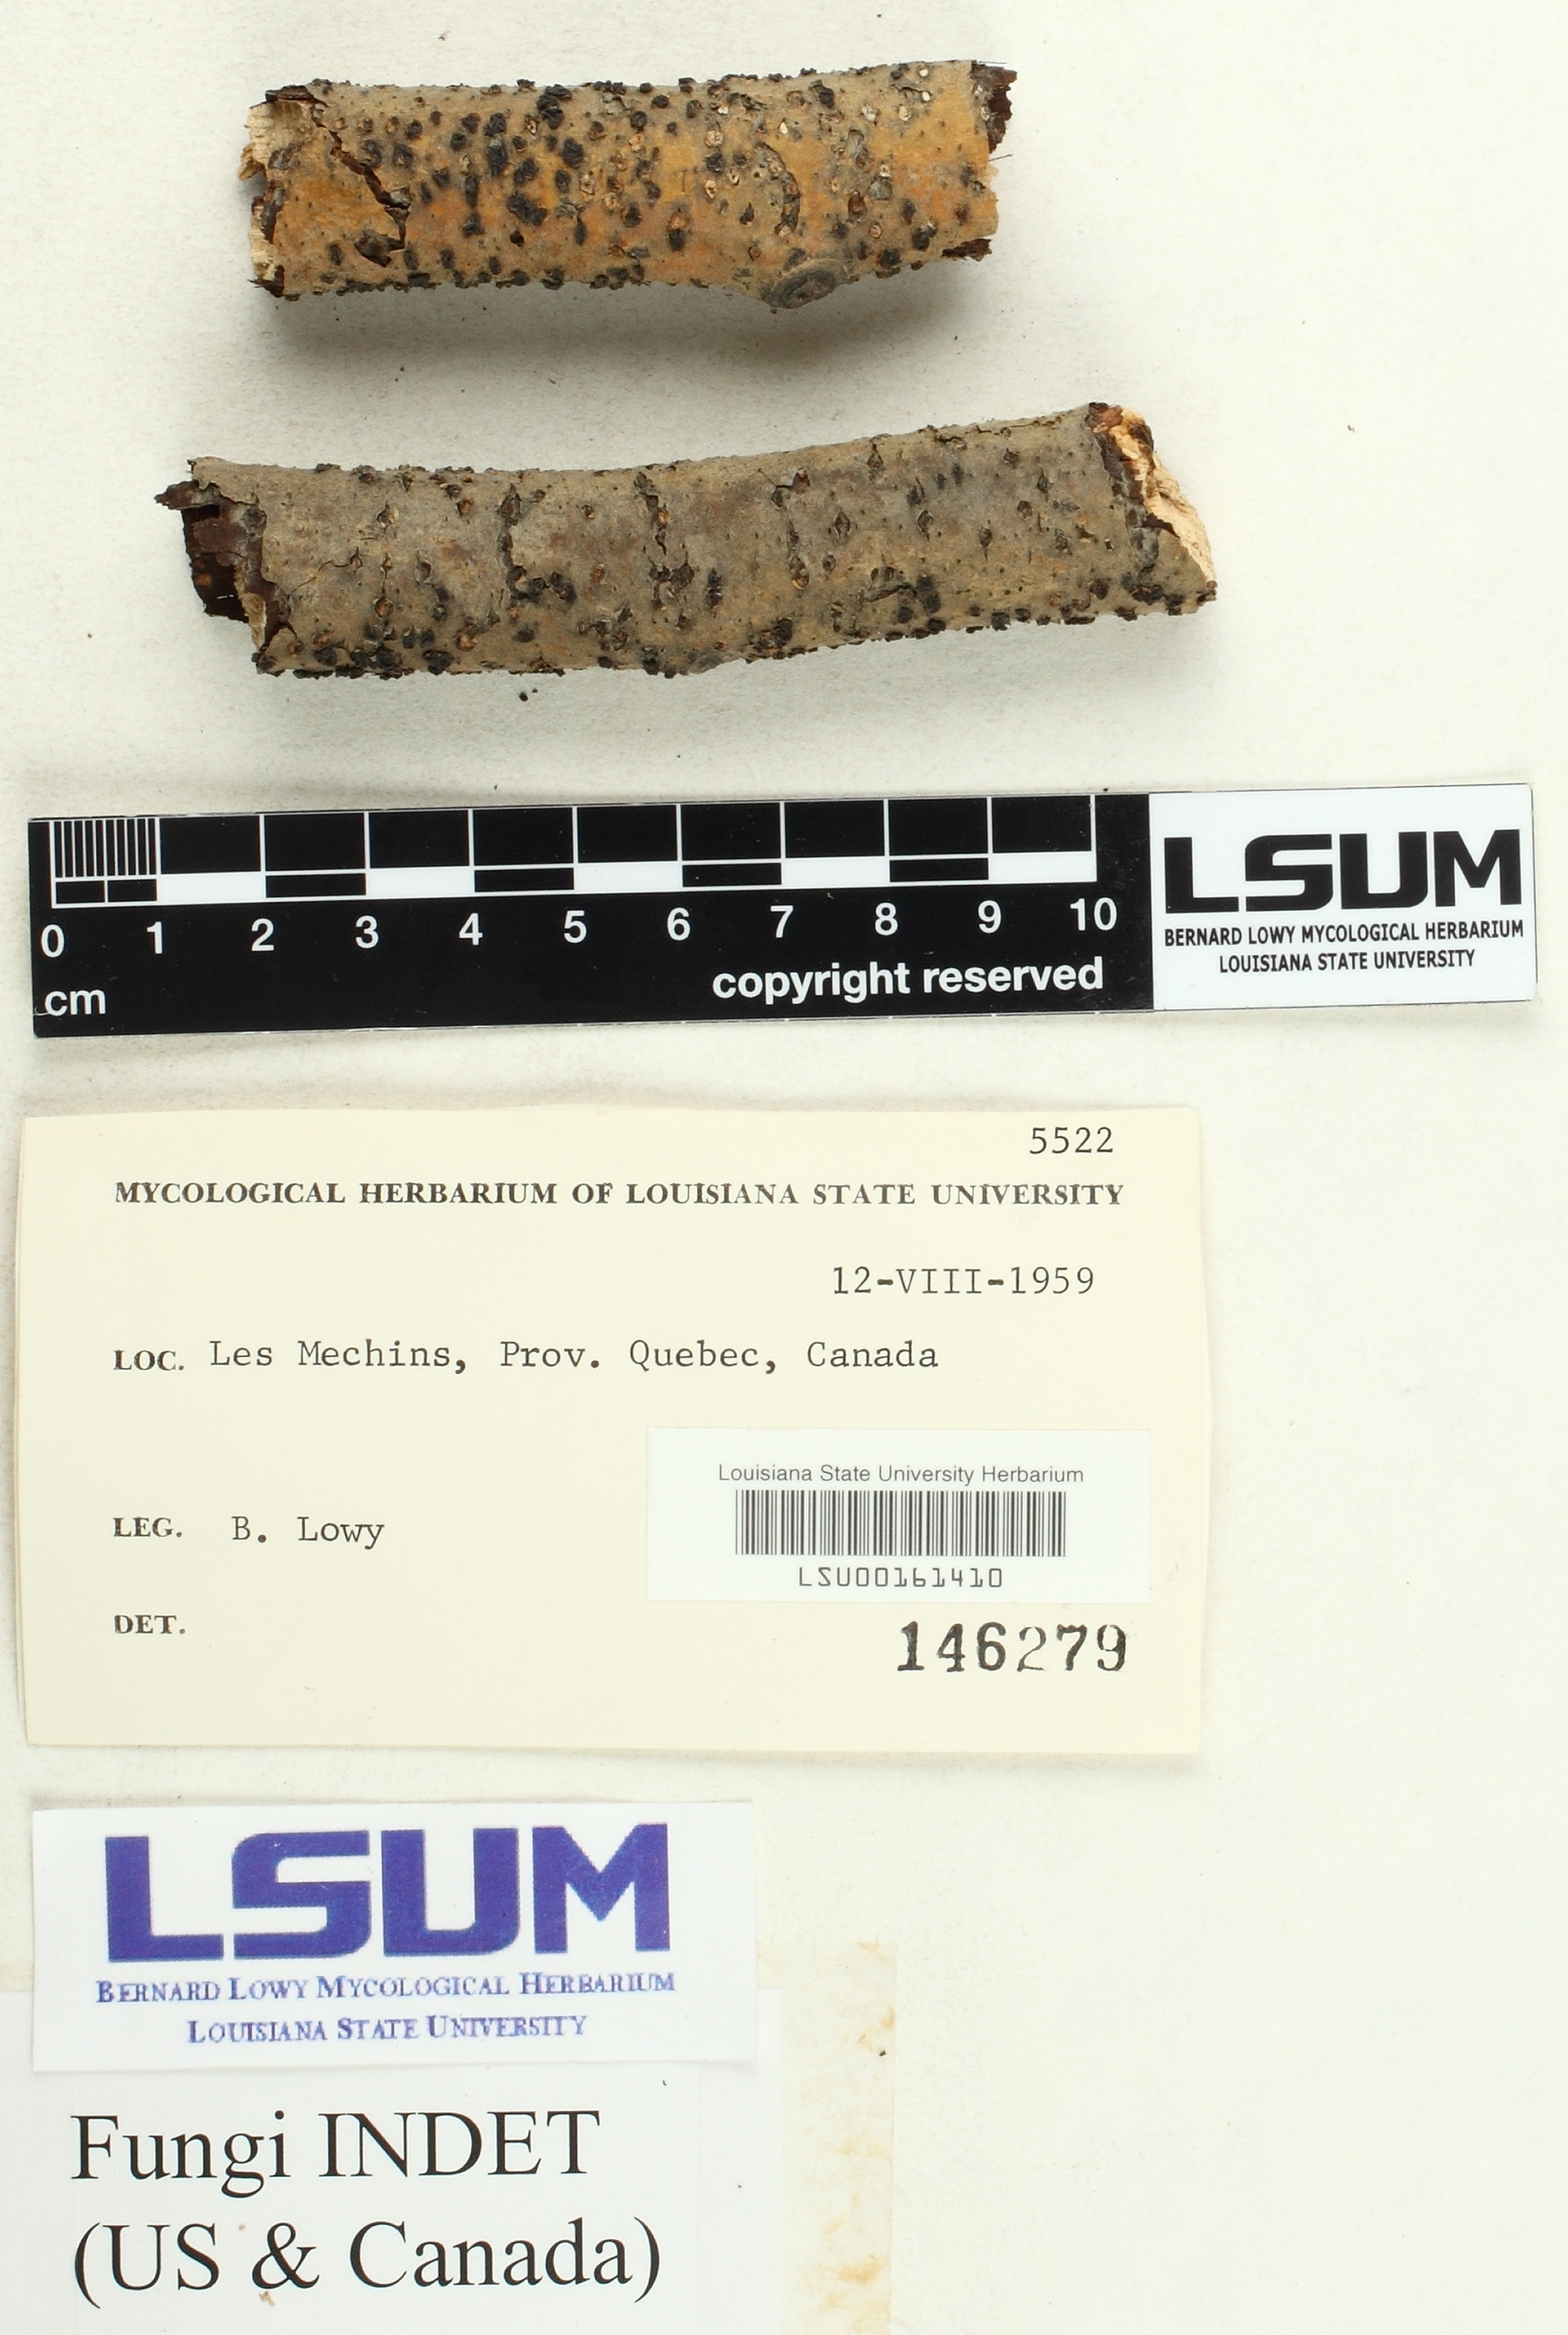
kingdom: Fungi
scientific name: Fungi
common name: Fungi
